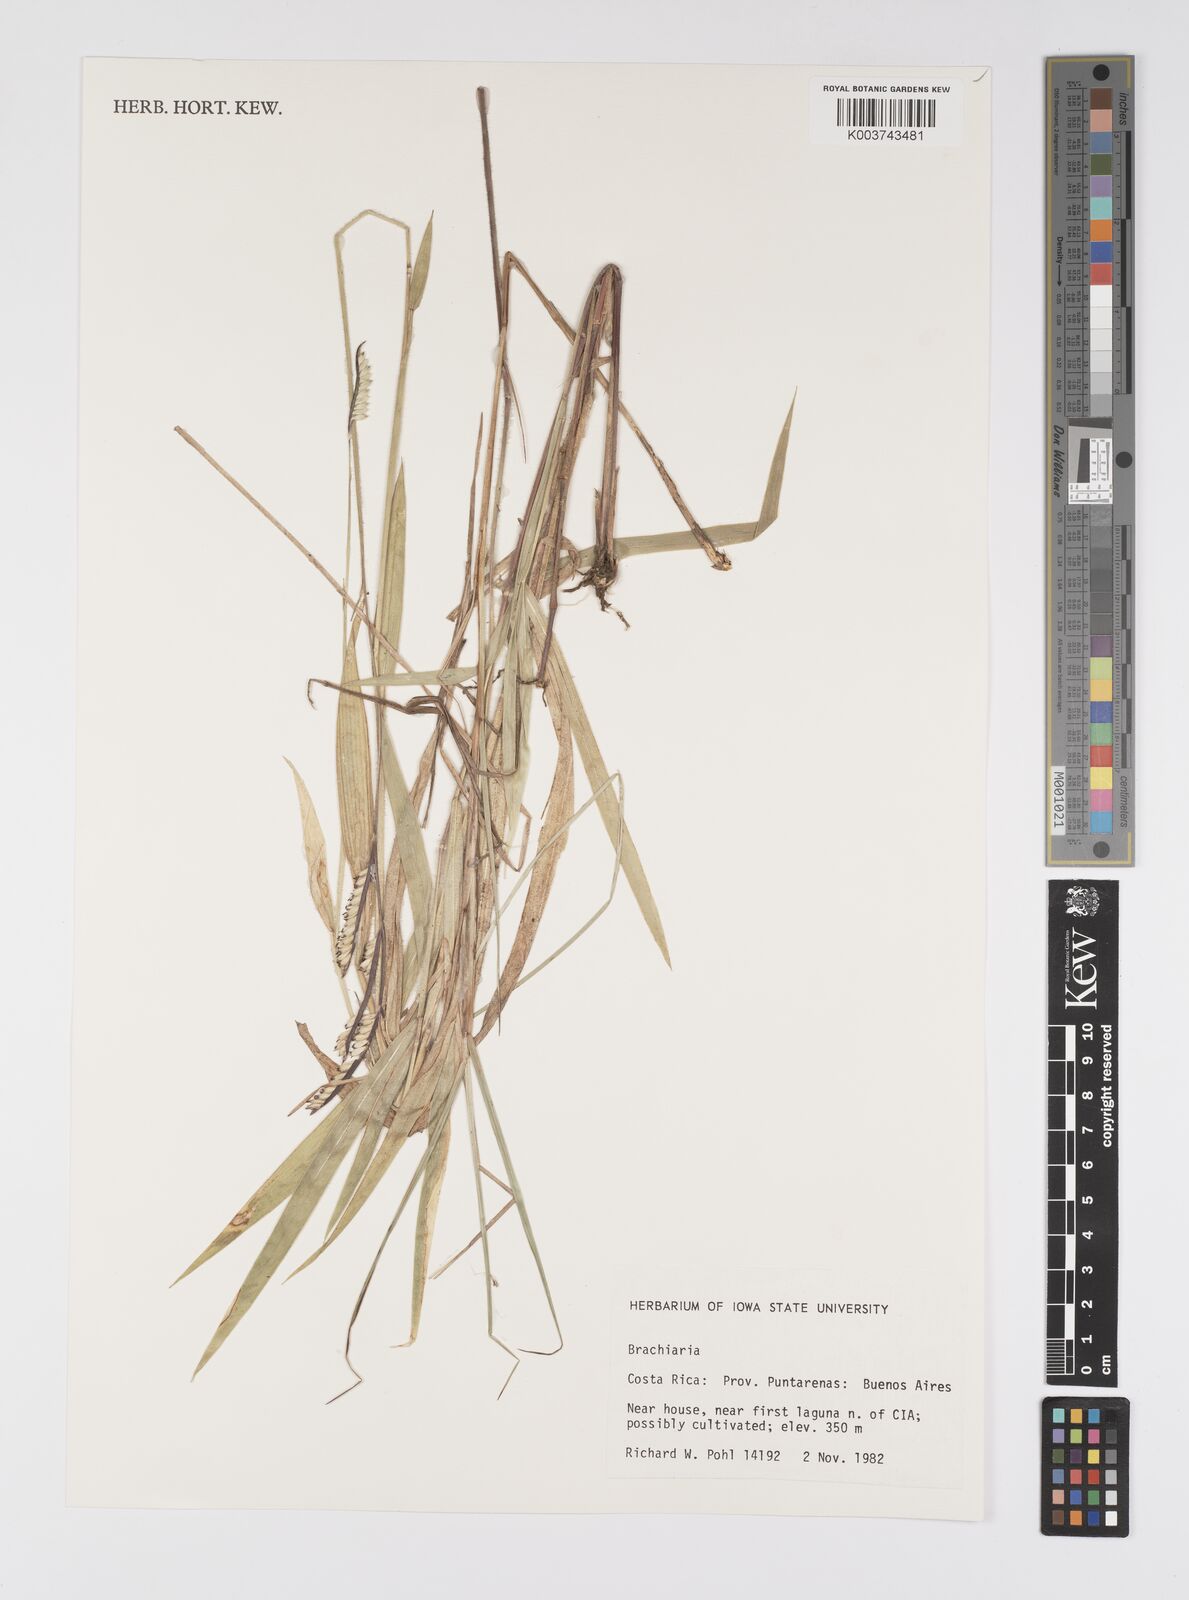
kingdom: Plantae
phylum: Tracheophyta
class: Liliopsida
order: Poales
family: Poaceae
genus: Urochloa
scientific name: Urochloa eminii
